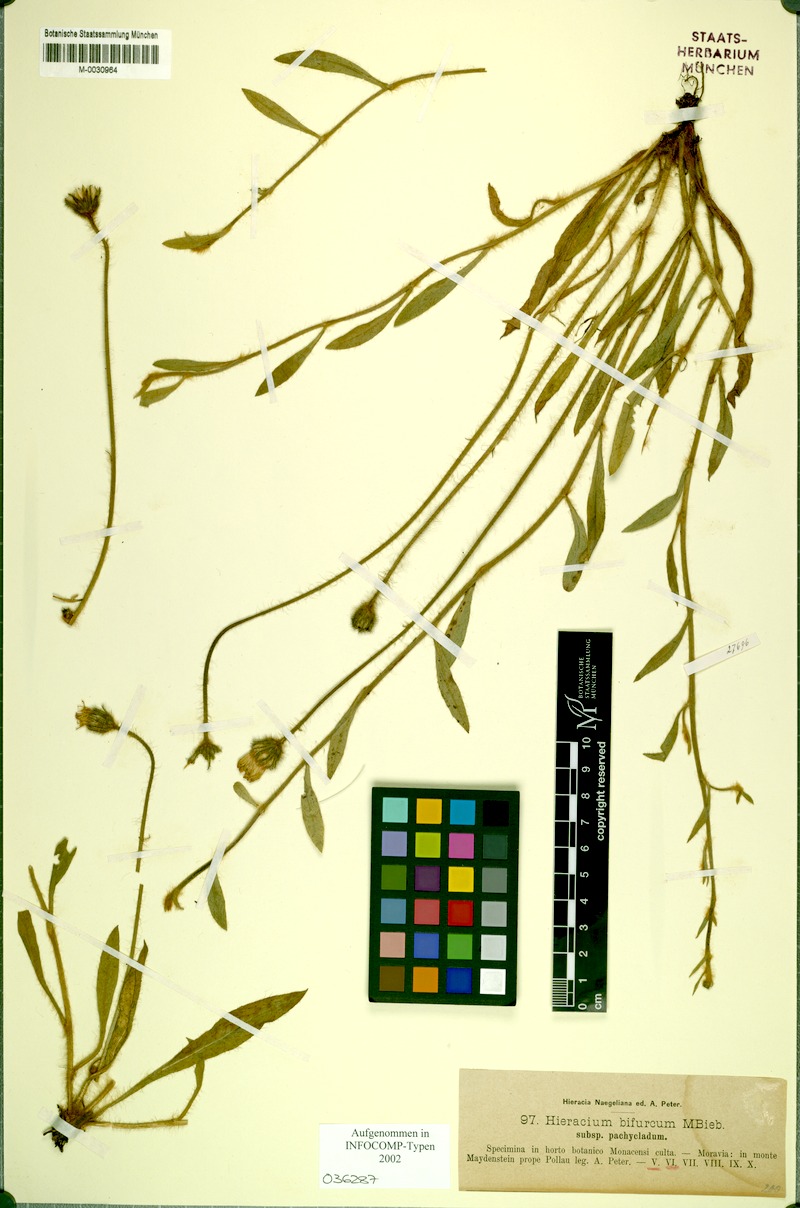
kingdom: Plantae
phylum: Tracheophyta
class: Magnoliopsida
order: Asterales
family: Asteraceae
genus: Pilosella
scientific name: Pilosella bifurca
